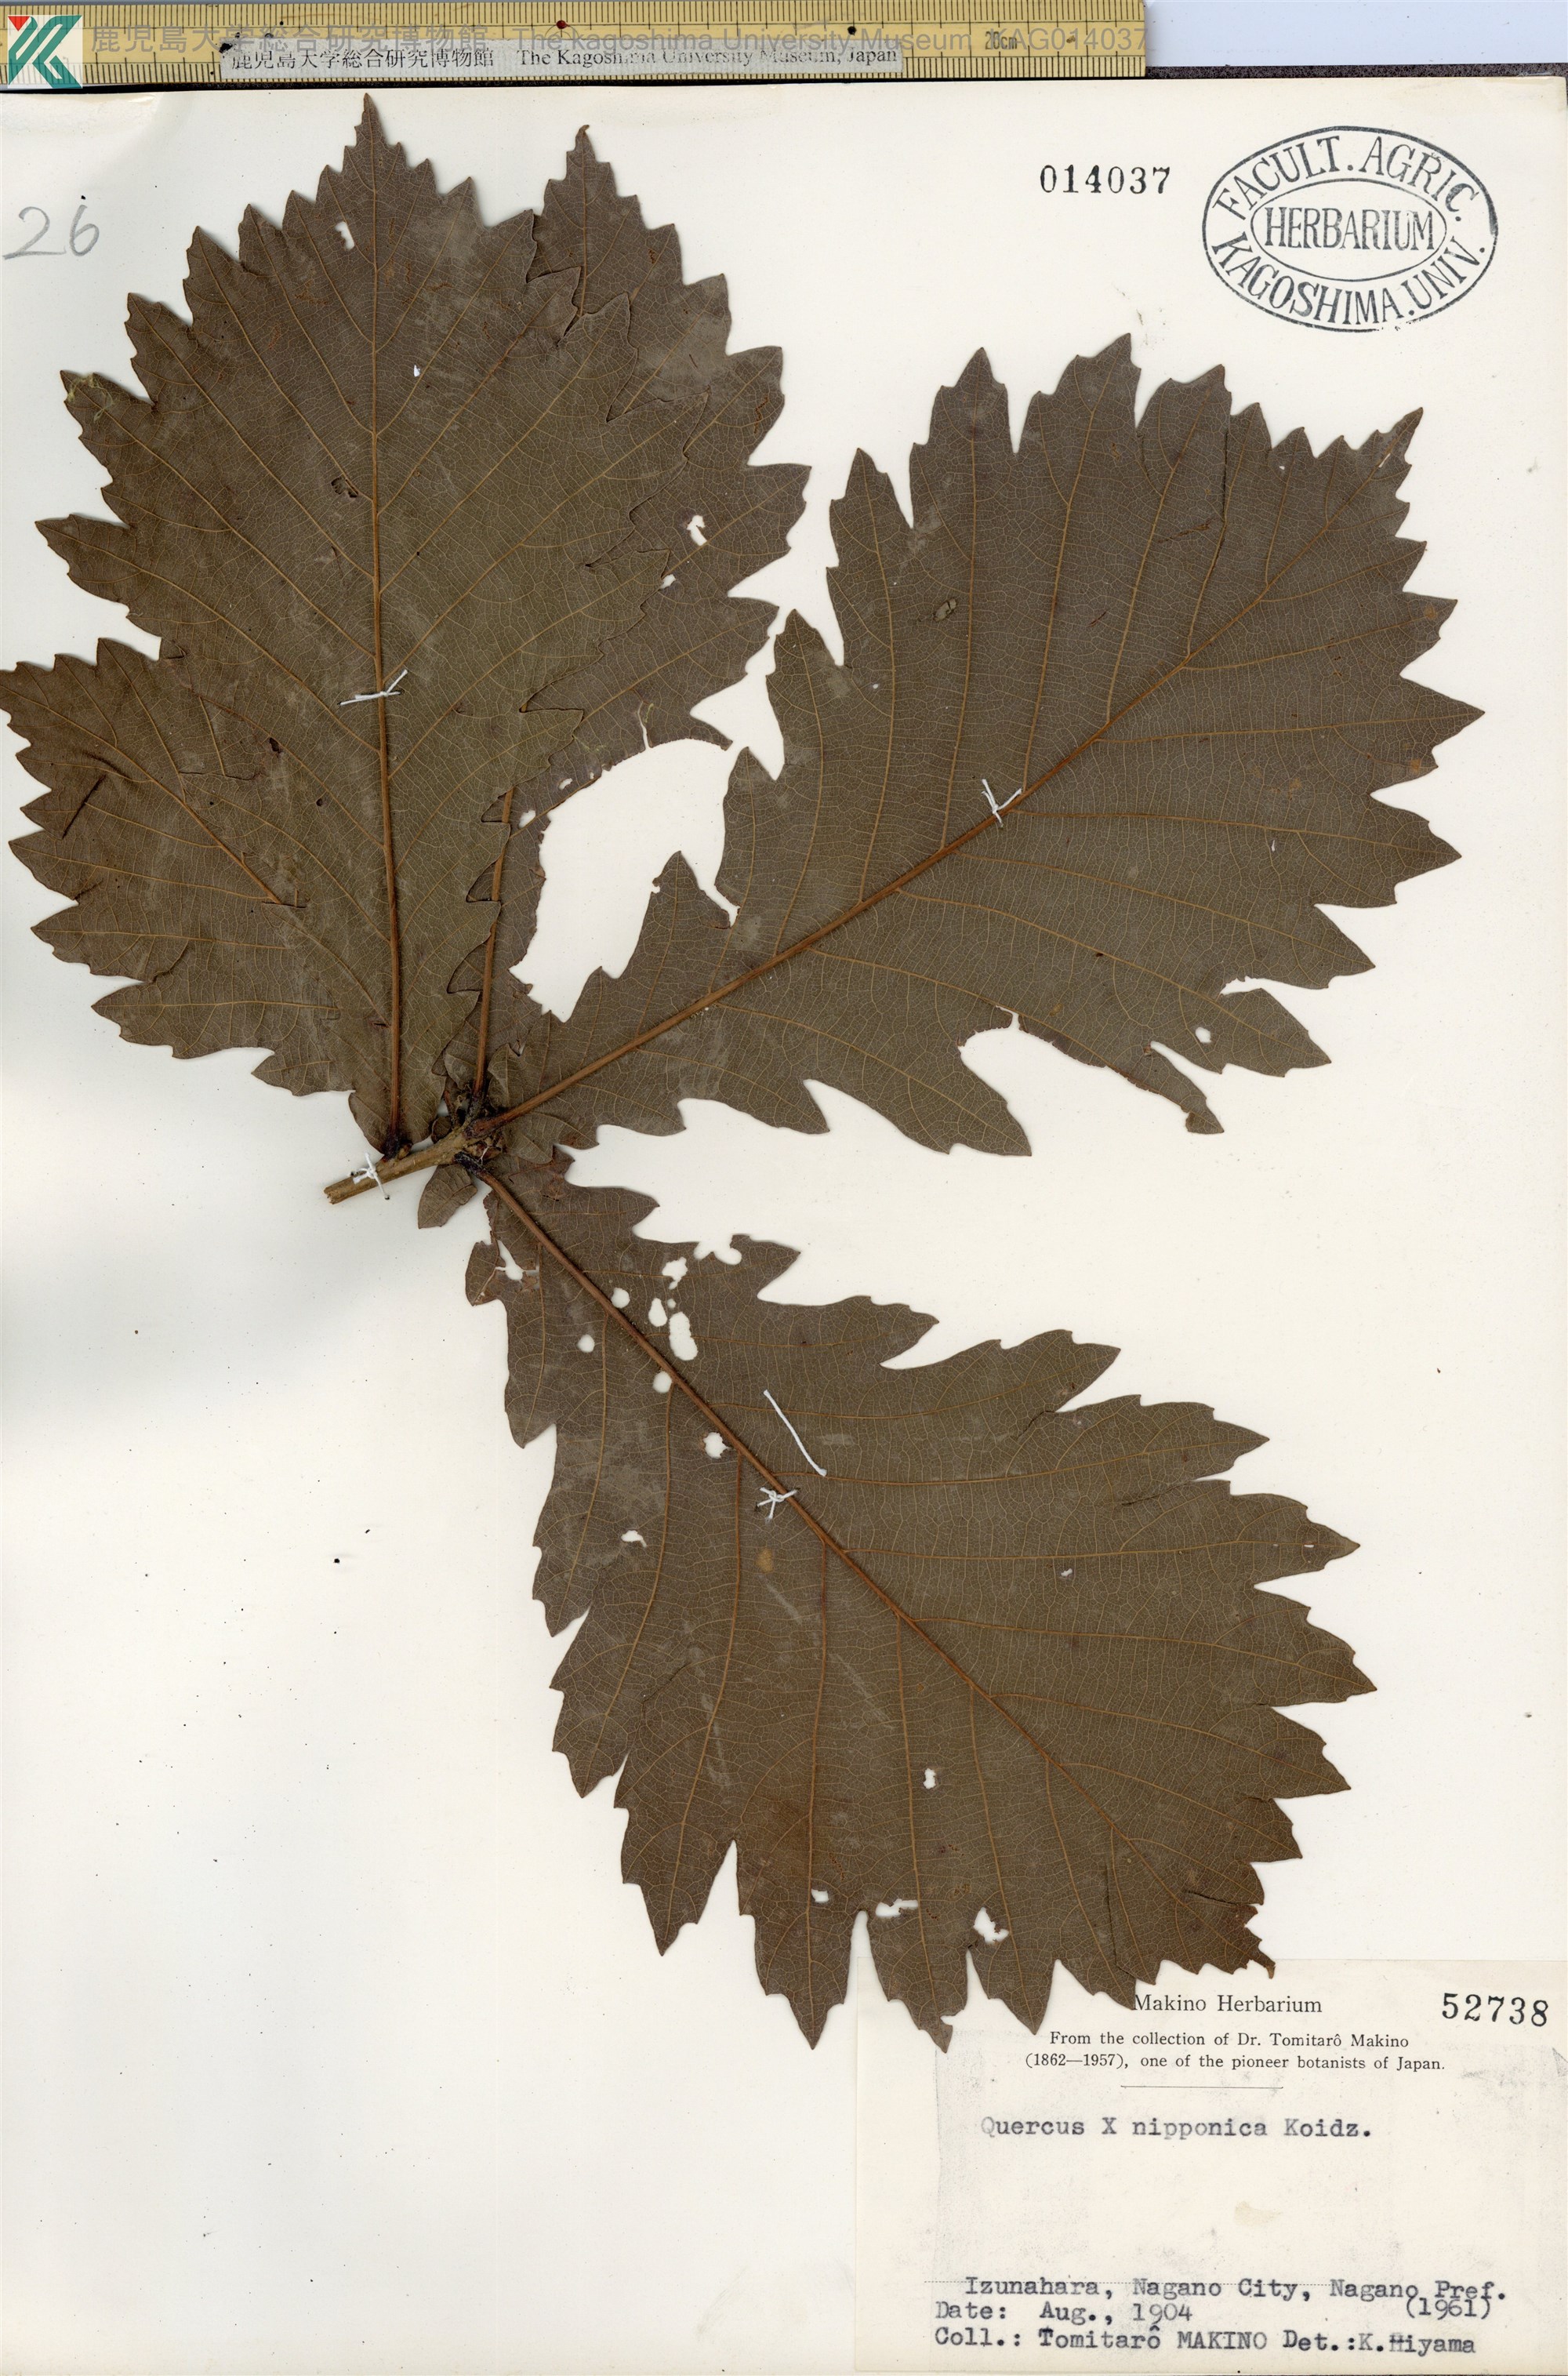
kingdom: Plantae
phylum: Tracheophyta
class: Magnoliopsida
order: Fagales
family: Fagaceae
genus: Quercus
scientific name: Quercus crispula
